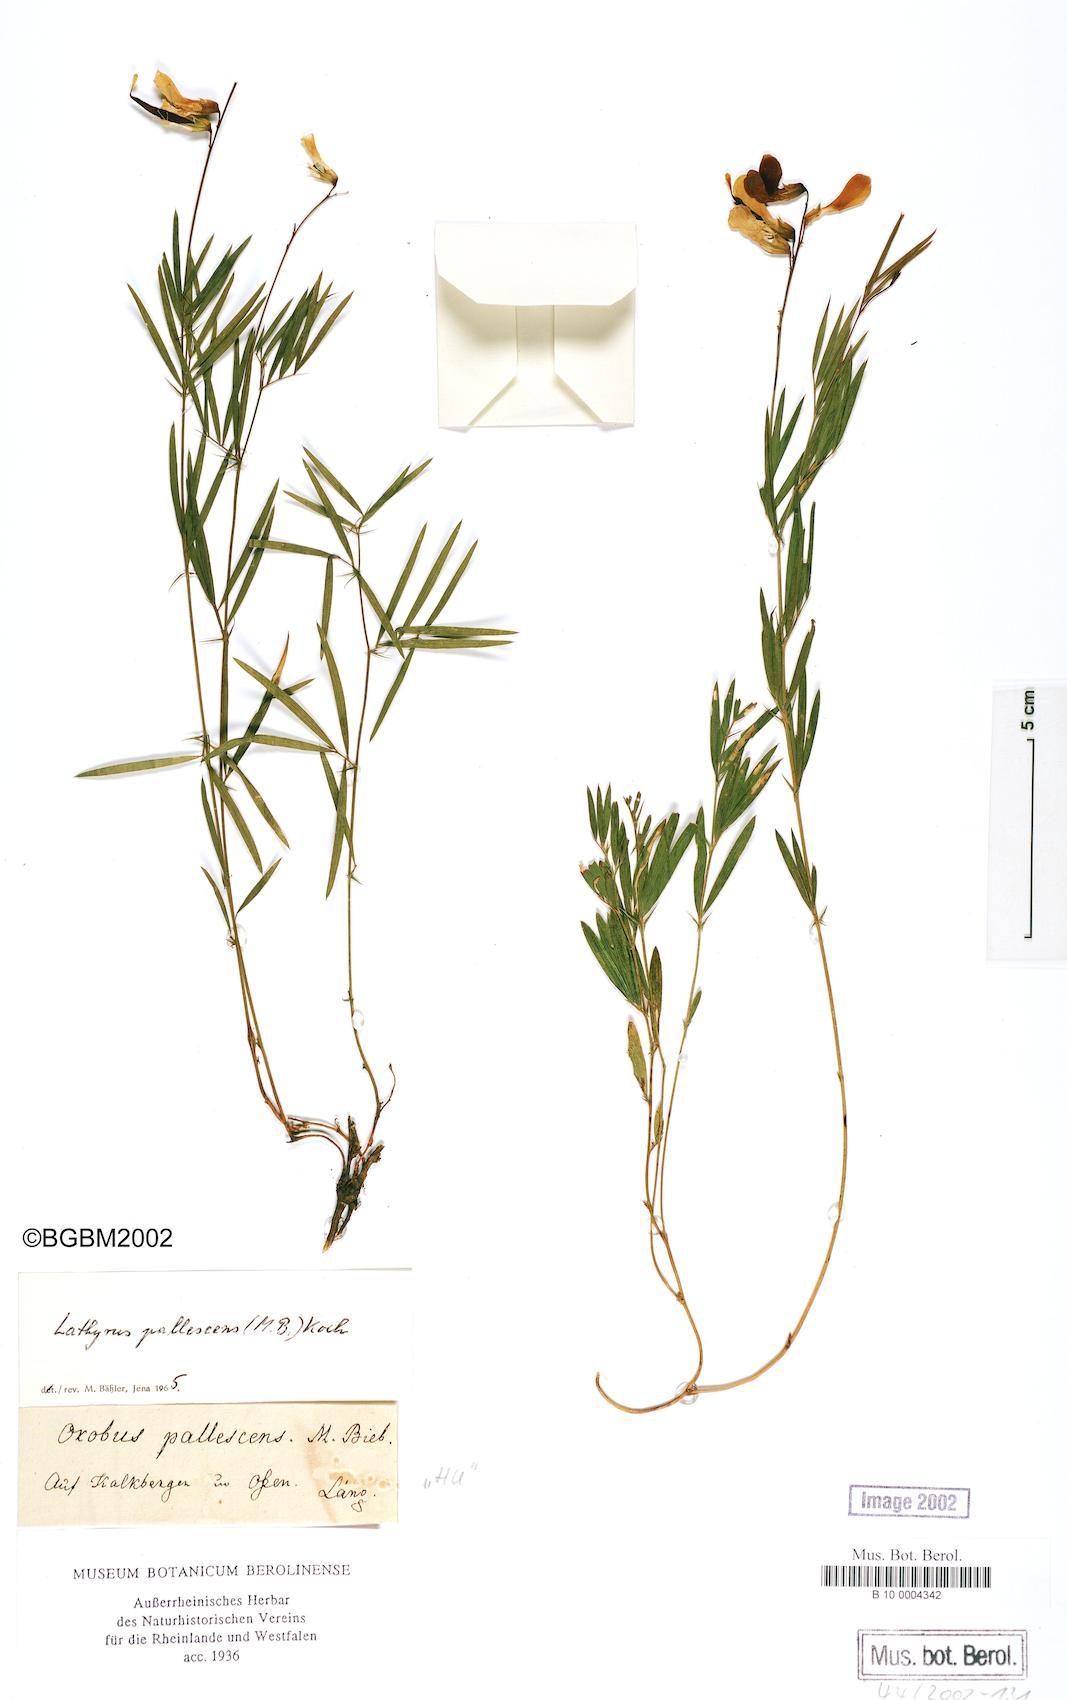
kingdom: Plantae
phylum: Tracheophyta
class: Magnoliopsida
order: Fabales
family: Fabaceae
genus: Lathyrus
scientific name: Lathyrus pallescens
